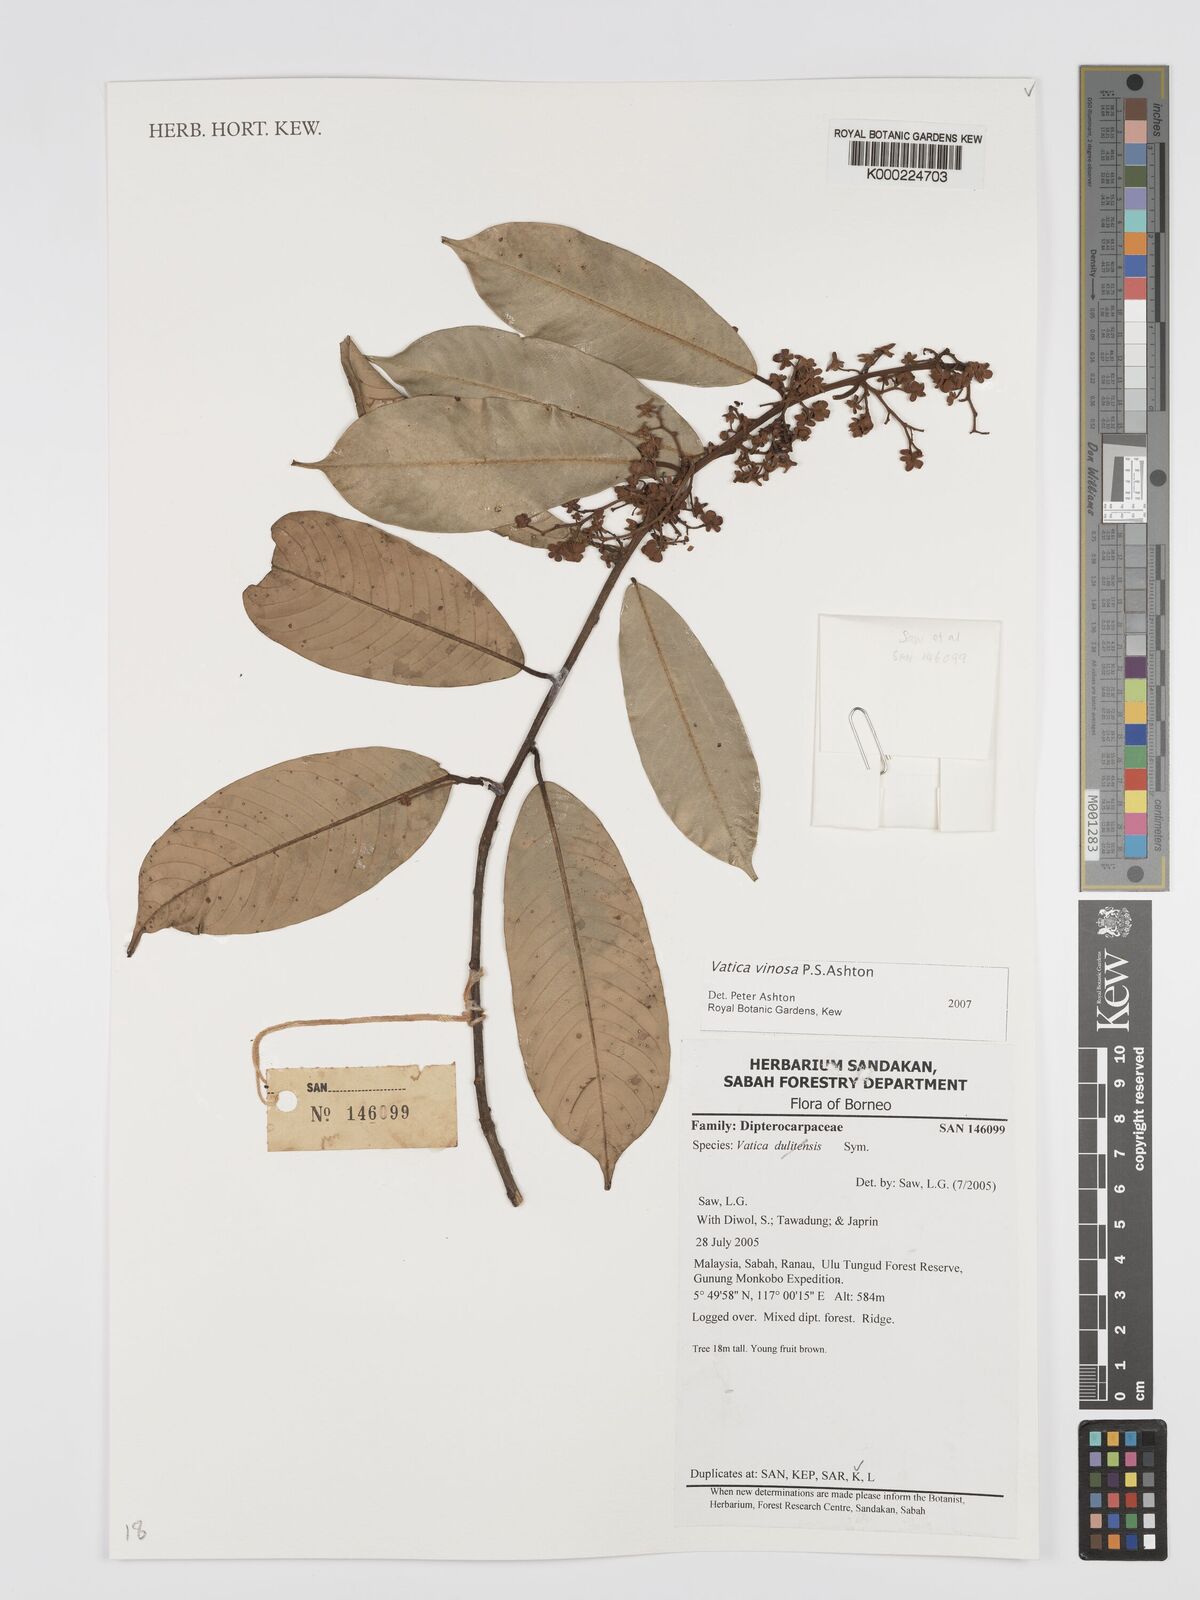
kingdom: Plantae
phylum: Tracheophyta
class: Magnoliopsida
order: Malvales
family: Dipterocarpaceae
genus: Vatica
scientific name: Vatica vinosa
